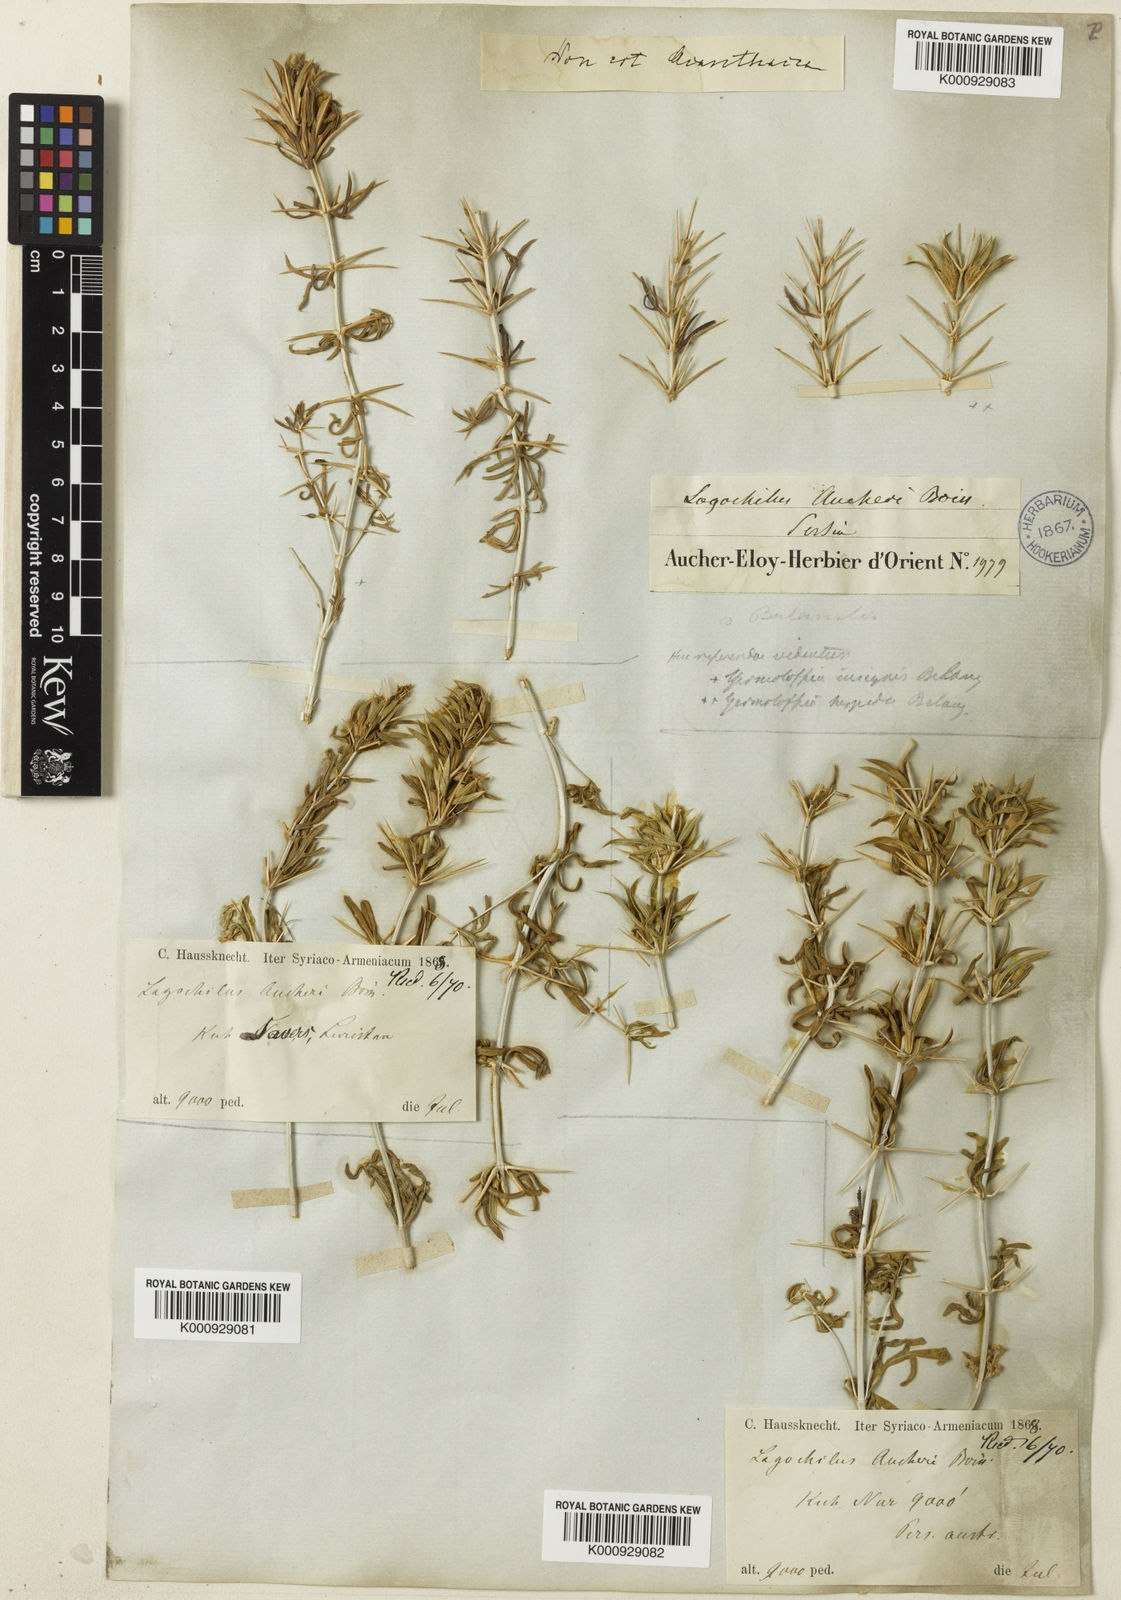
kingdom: Plantae
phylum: Tracheophyta
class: Magnoliopsida
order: Lamiales
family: Lamiaceae
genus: Lagochilus
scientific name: Lagochilus aucheri
